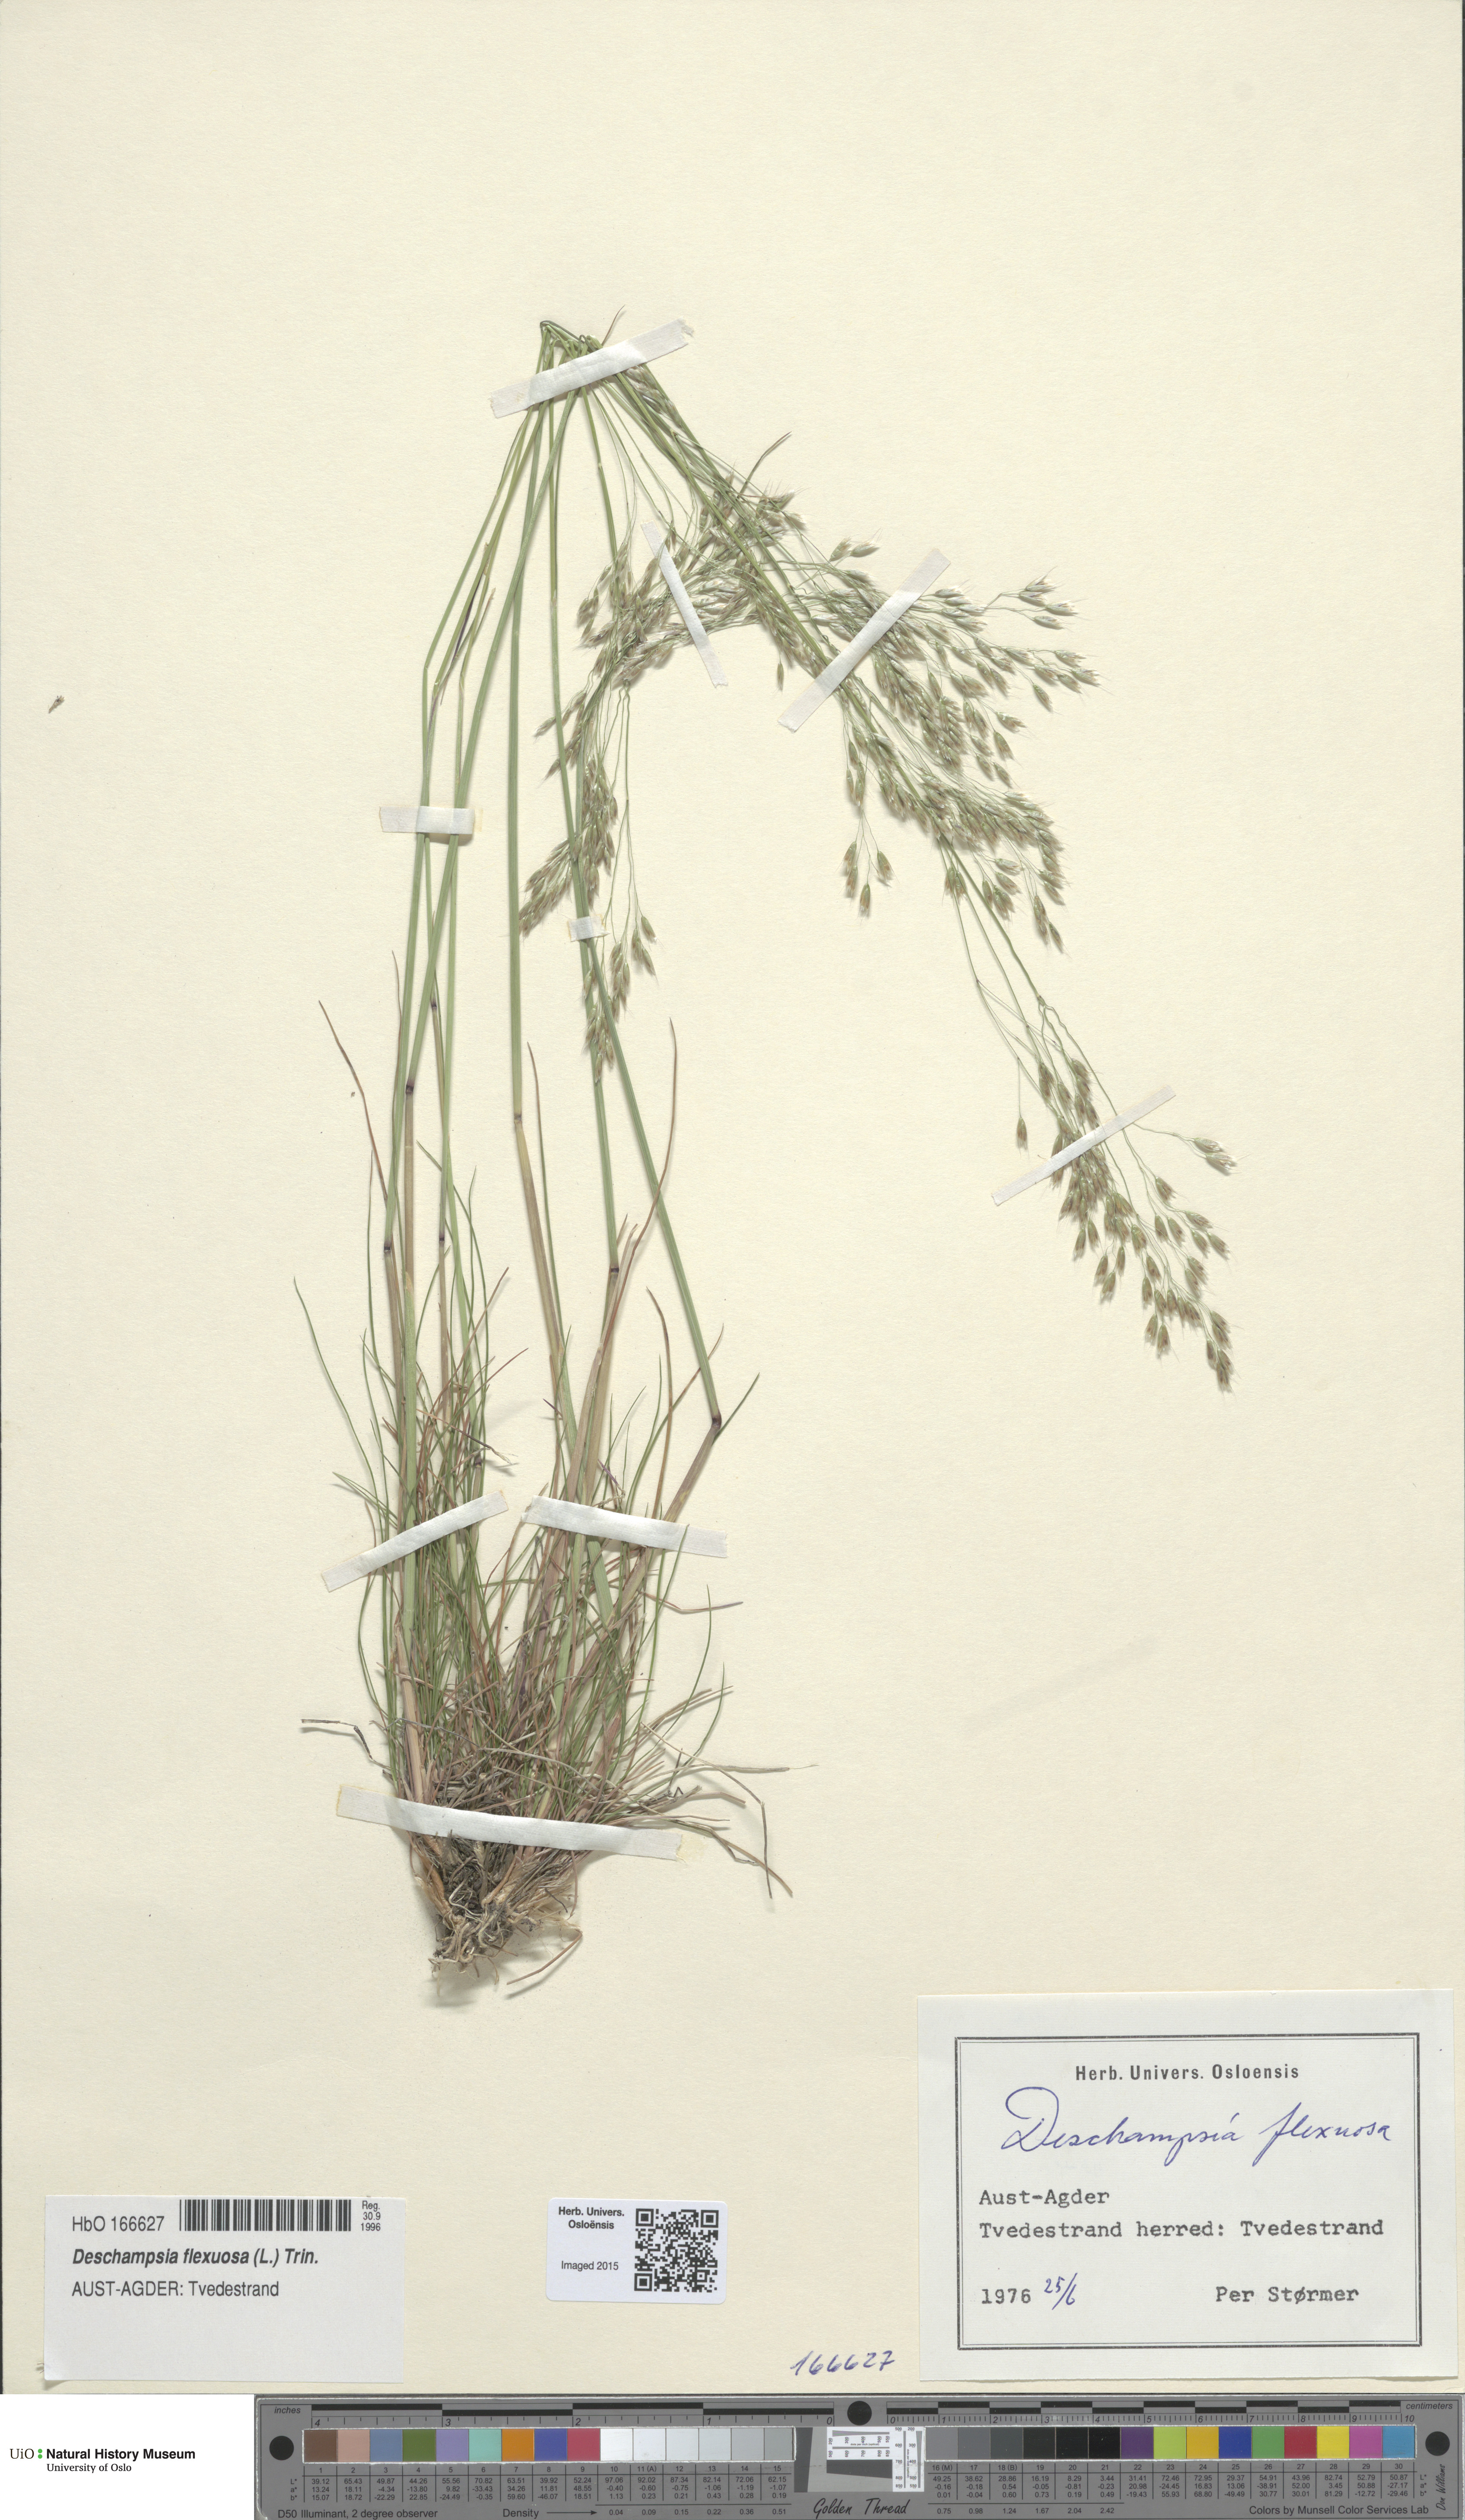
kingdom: Plantae
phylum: Tracheophyta
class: Liliopsida
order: Poales
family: Poaceae
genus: Avenella
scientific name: Avenella flexuosa
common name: Wavy hairgrass
